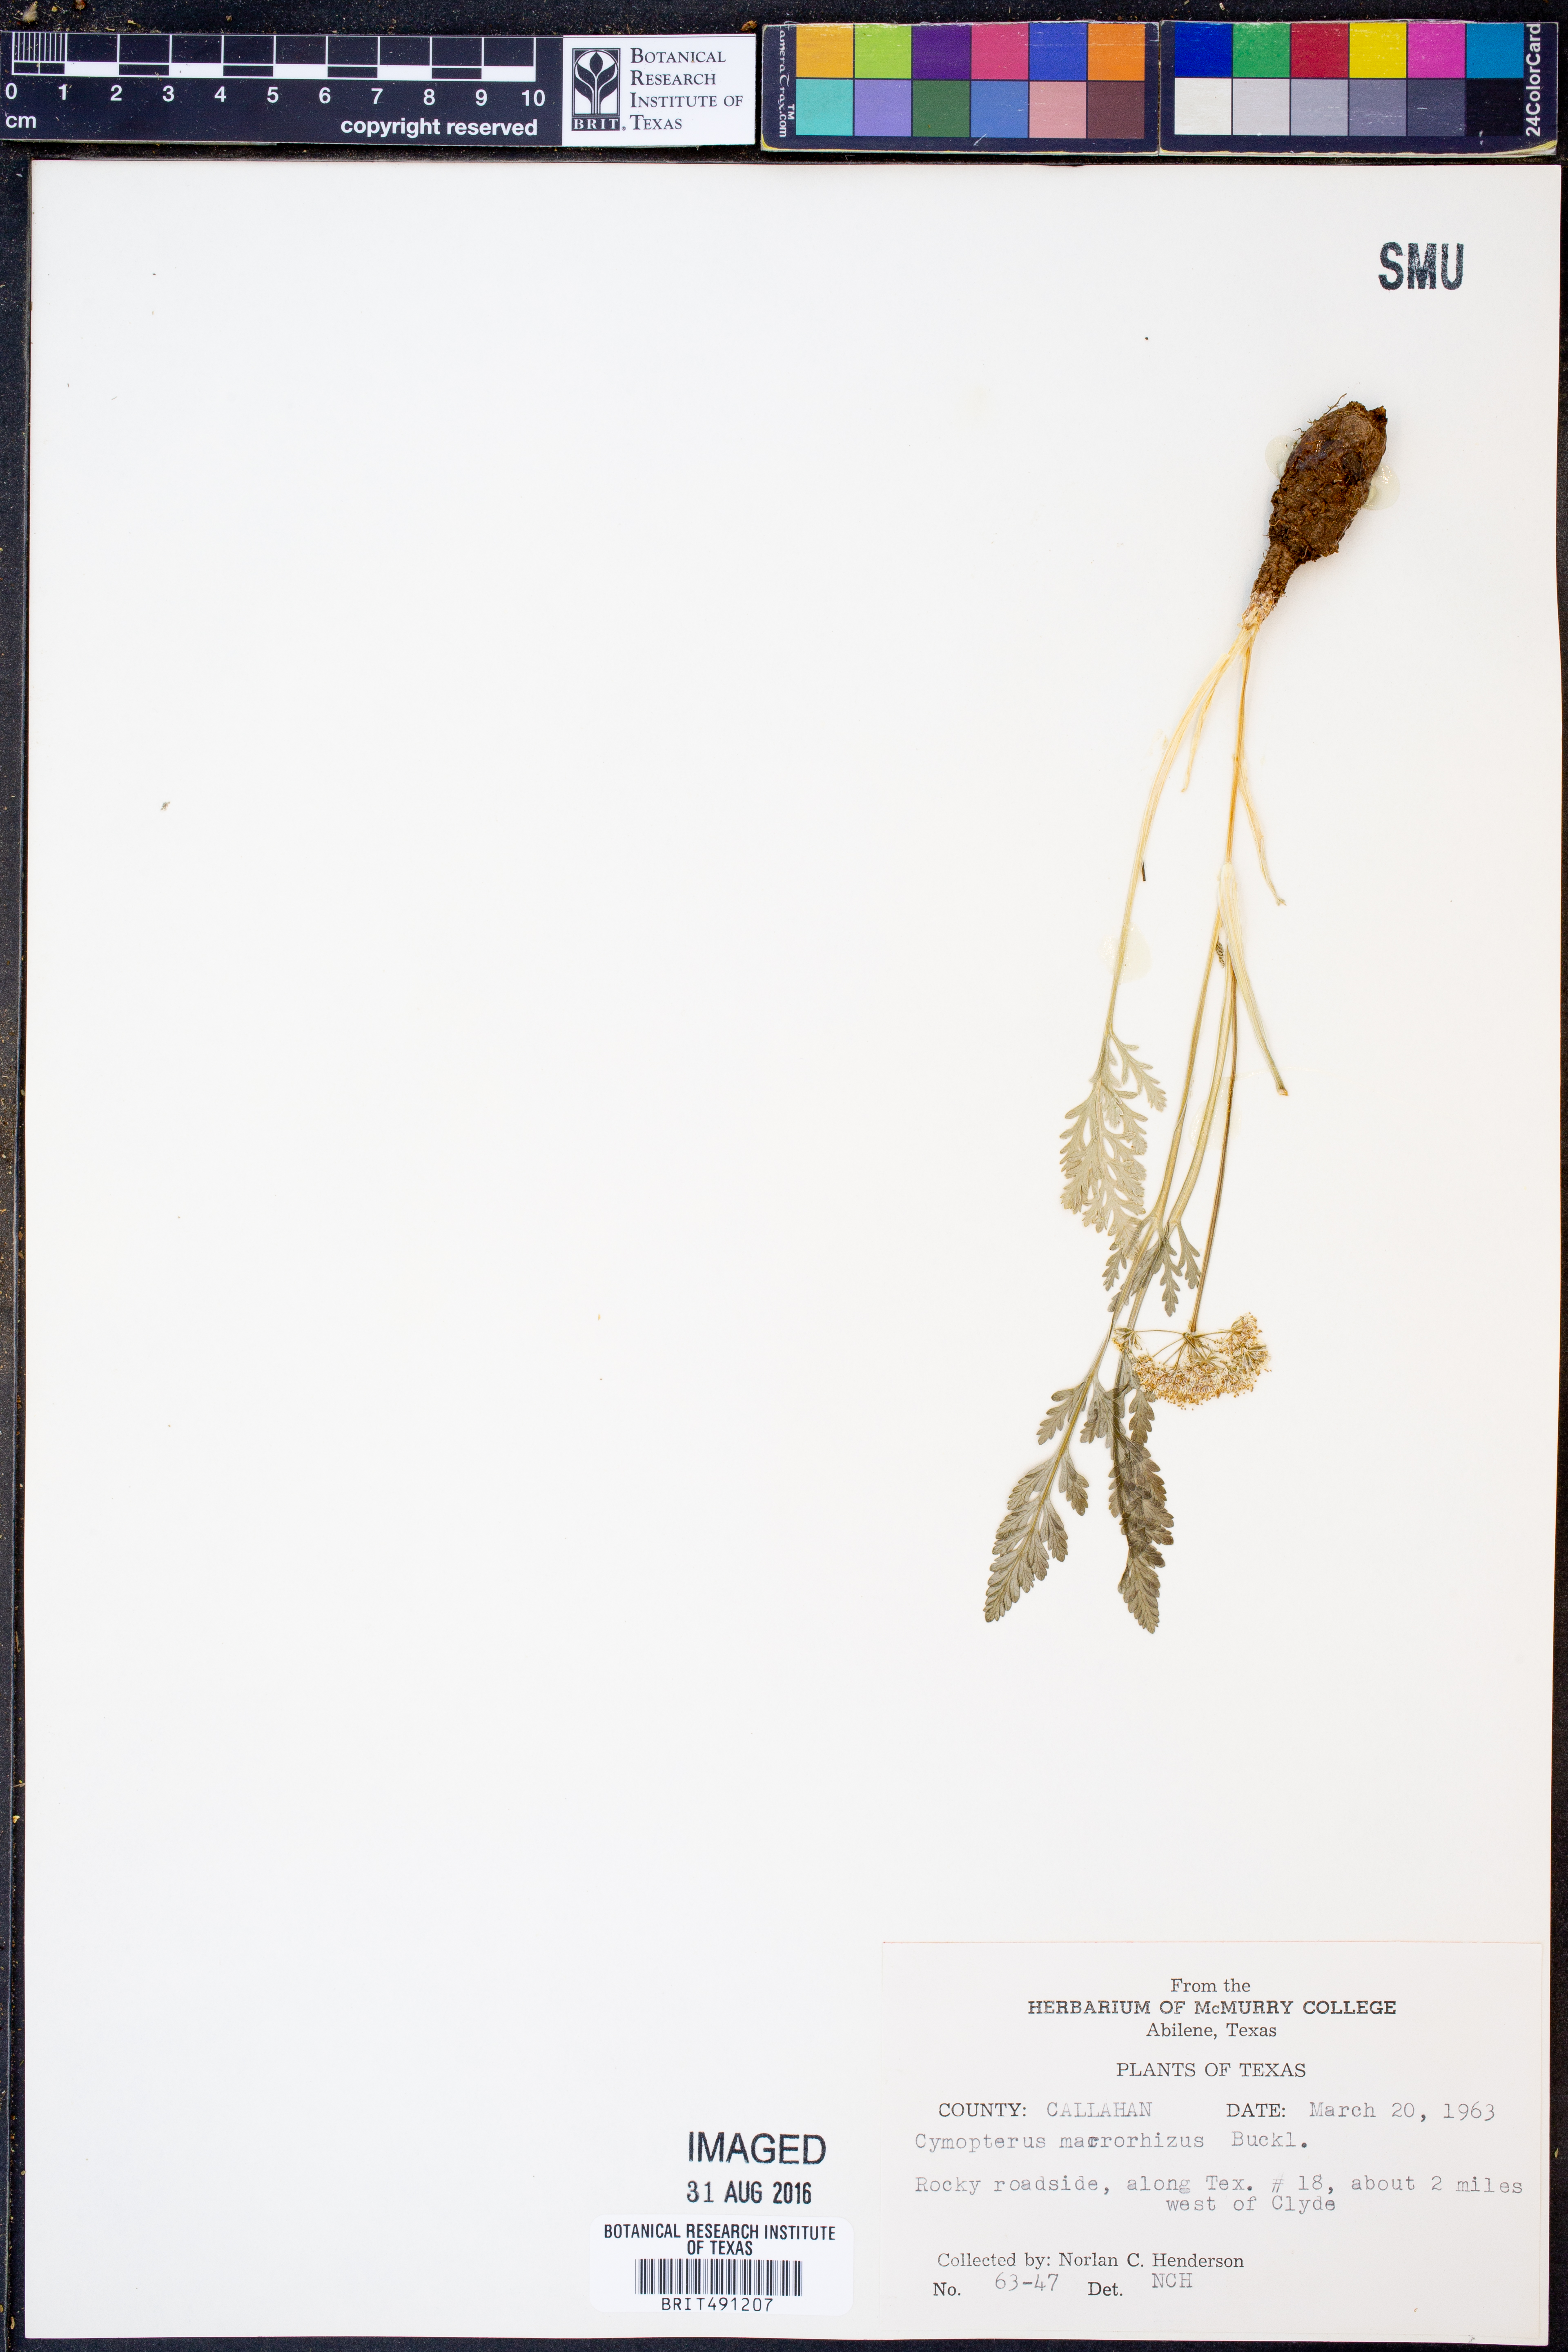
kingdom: Plantae
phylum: Tracheophyta
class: Magnoliopsida
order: Apiales
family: Apiaceae
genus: Vesper
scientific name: Vesper macrorhizus
